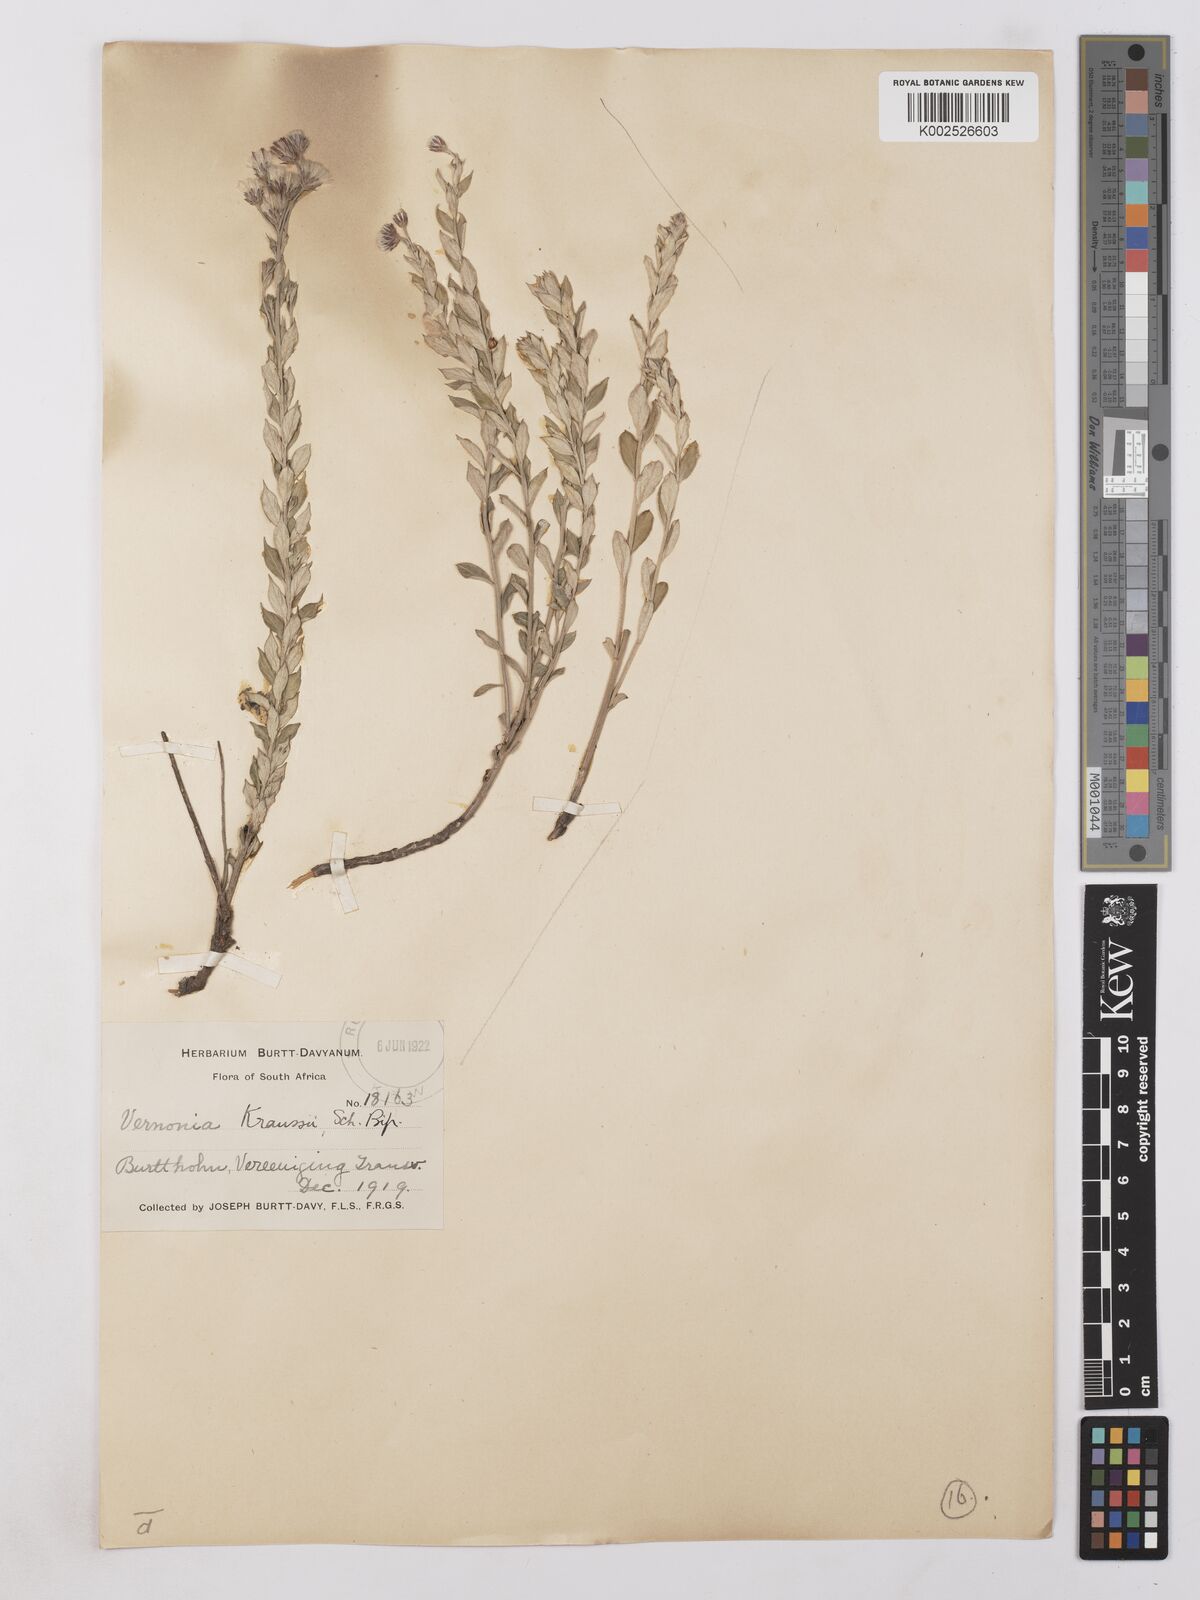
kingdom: Plantae
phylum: Tracheophyta
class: Magnoliopsida
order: Asterales
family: Asteraceae
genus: Lepidaploa
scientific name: Lepidaploa aurea
